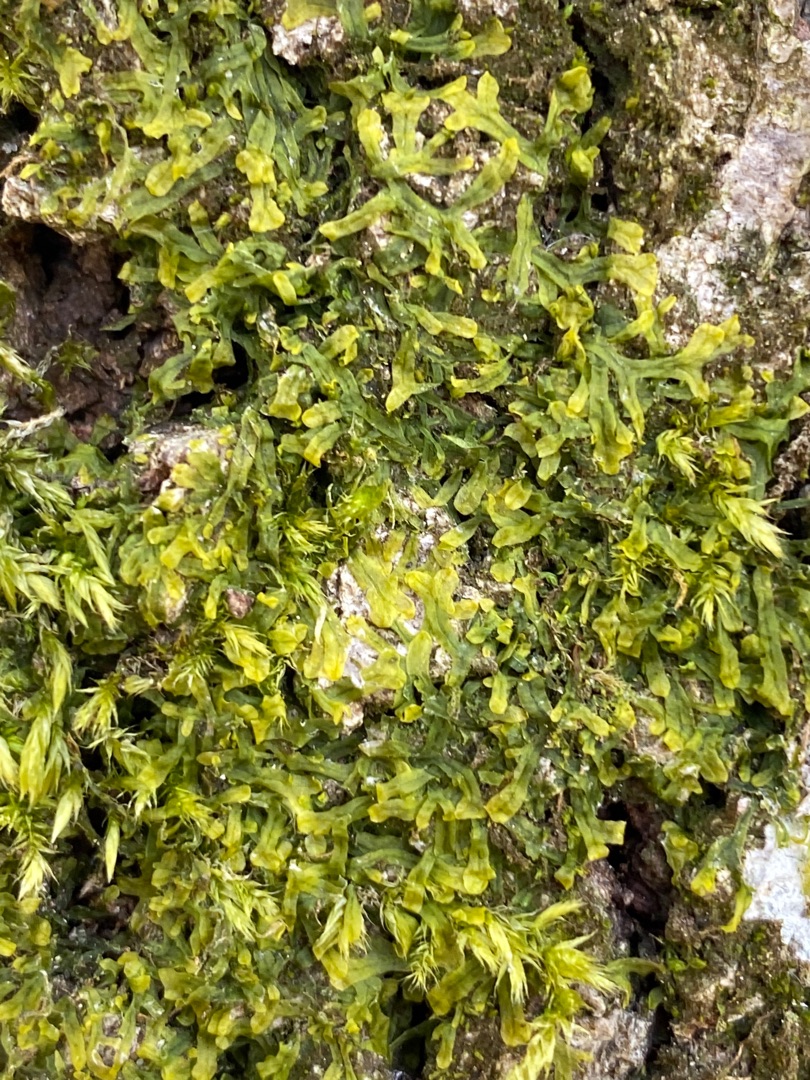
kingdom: Plantae
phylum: Marchantiophyta
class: Jungermanniopsida
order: Metzgeriales
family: Metzgeriaceae
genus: Metzgeria
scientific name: Metzgeria furcata
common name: Almindelig gaffelløv
